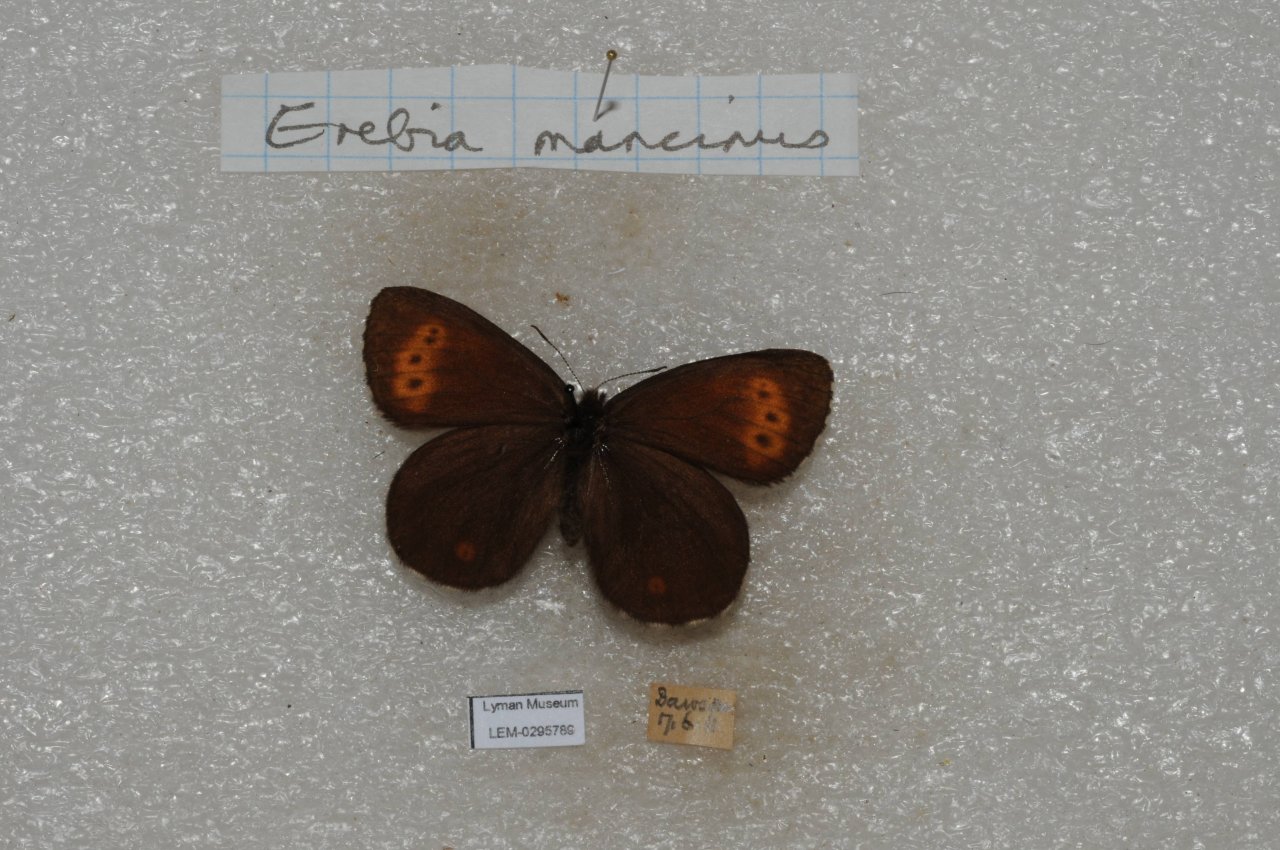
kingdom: Animalia
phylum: Arthropoda
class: Insecta
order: Lepidoptera
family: Nymphalidae
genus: Erebia
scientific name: Erebia disa
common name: Taiga Alpine
